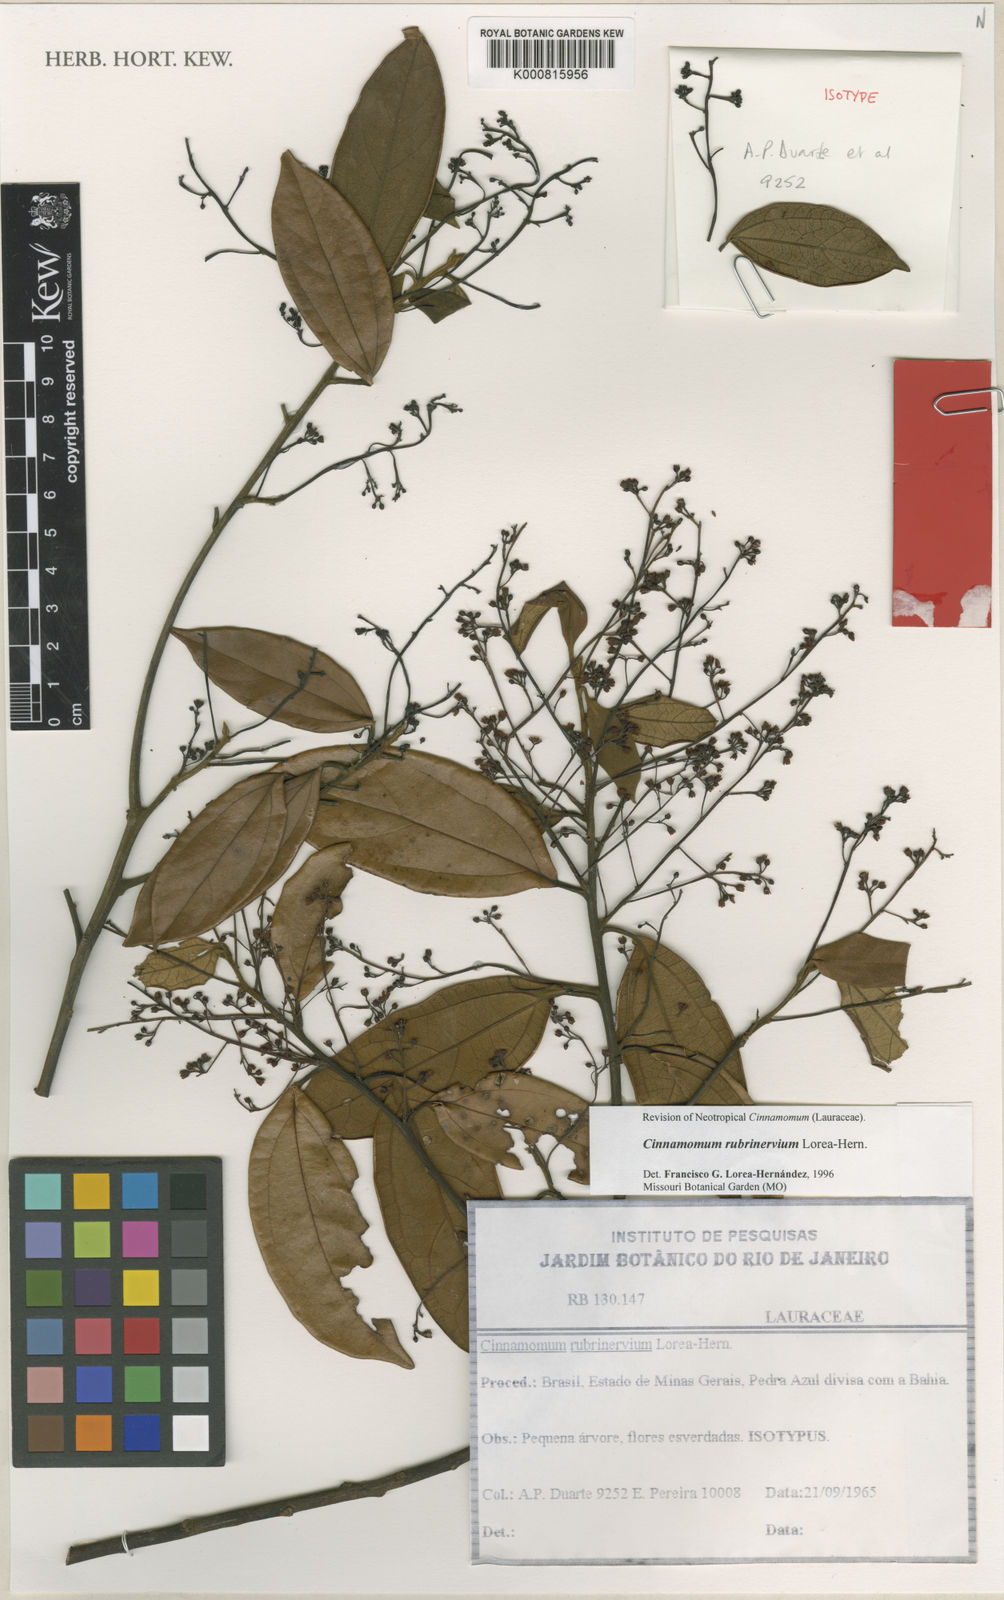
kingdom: Plantae
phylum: Tracheophyta
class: Magnoliopsida
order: Laurales
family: Lauraceae
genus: Cinnamomum
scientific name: Cinnamomum
